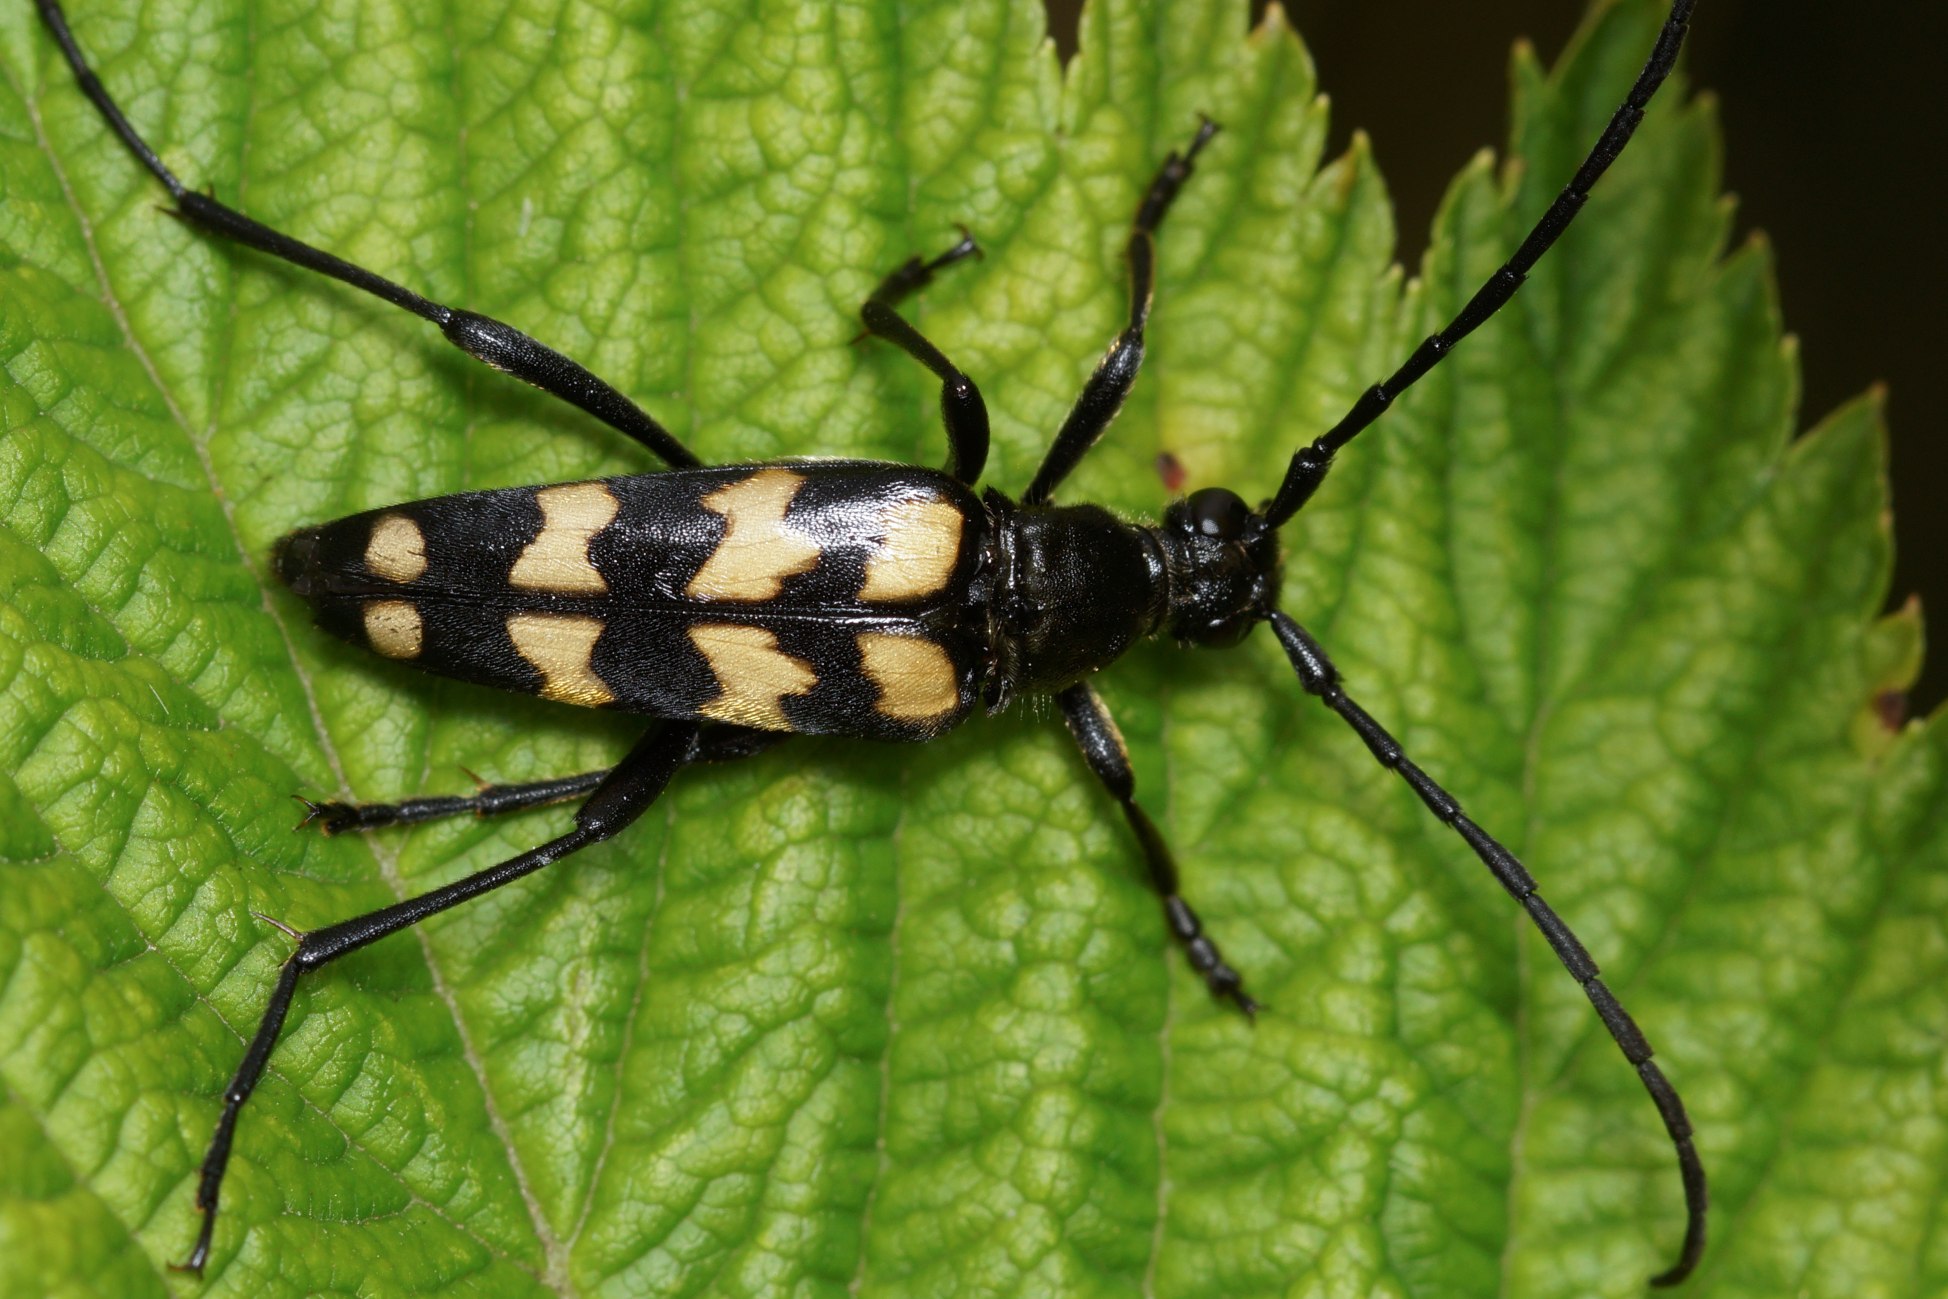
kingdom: Animalia
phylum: Arthropoda
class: Insecta
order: Coleoptera
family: Cerambycidae
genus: Leptura
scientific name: Leptura quadrifasciata
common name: Firebåndet blomsterbuk
